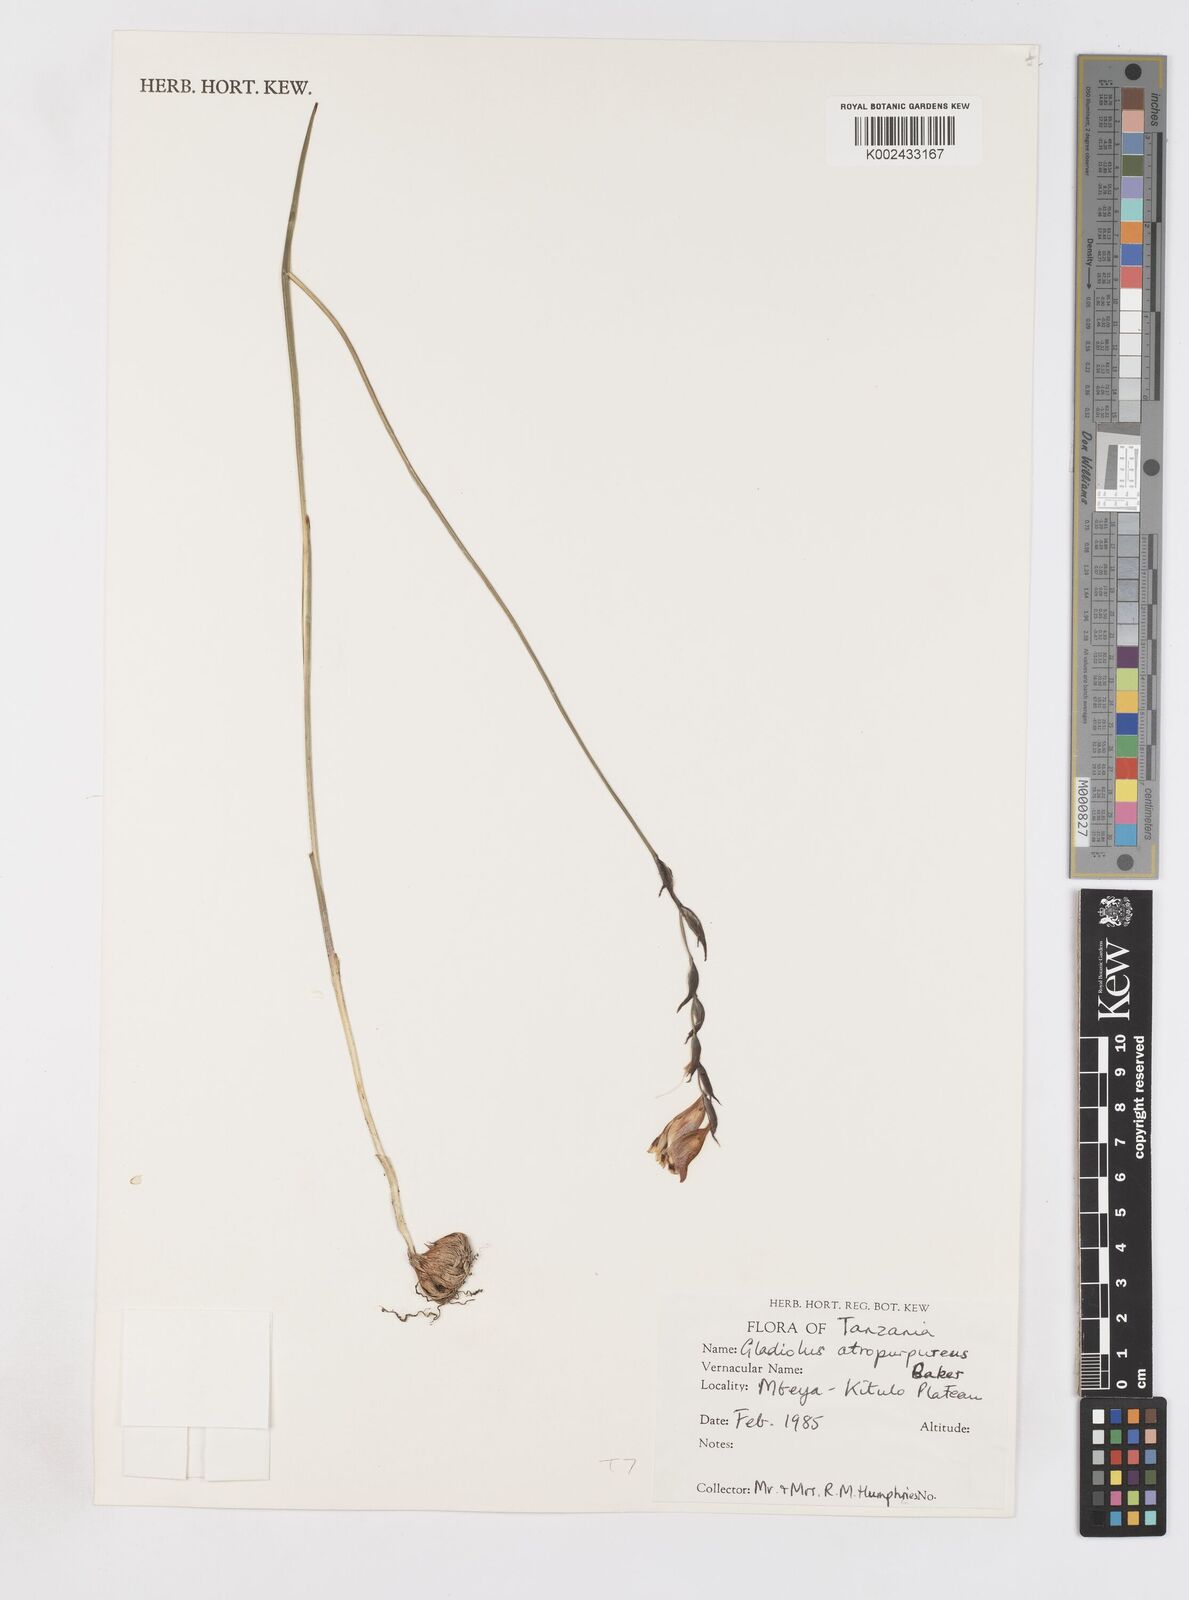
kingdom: Plantae
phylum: Tracheophyta
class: Liliopsida
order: Asparagales
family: Iridaceae
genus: Gladiolus
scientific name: Gladiolus atropurpureus
